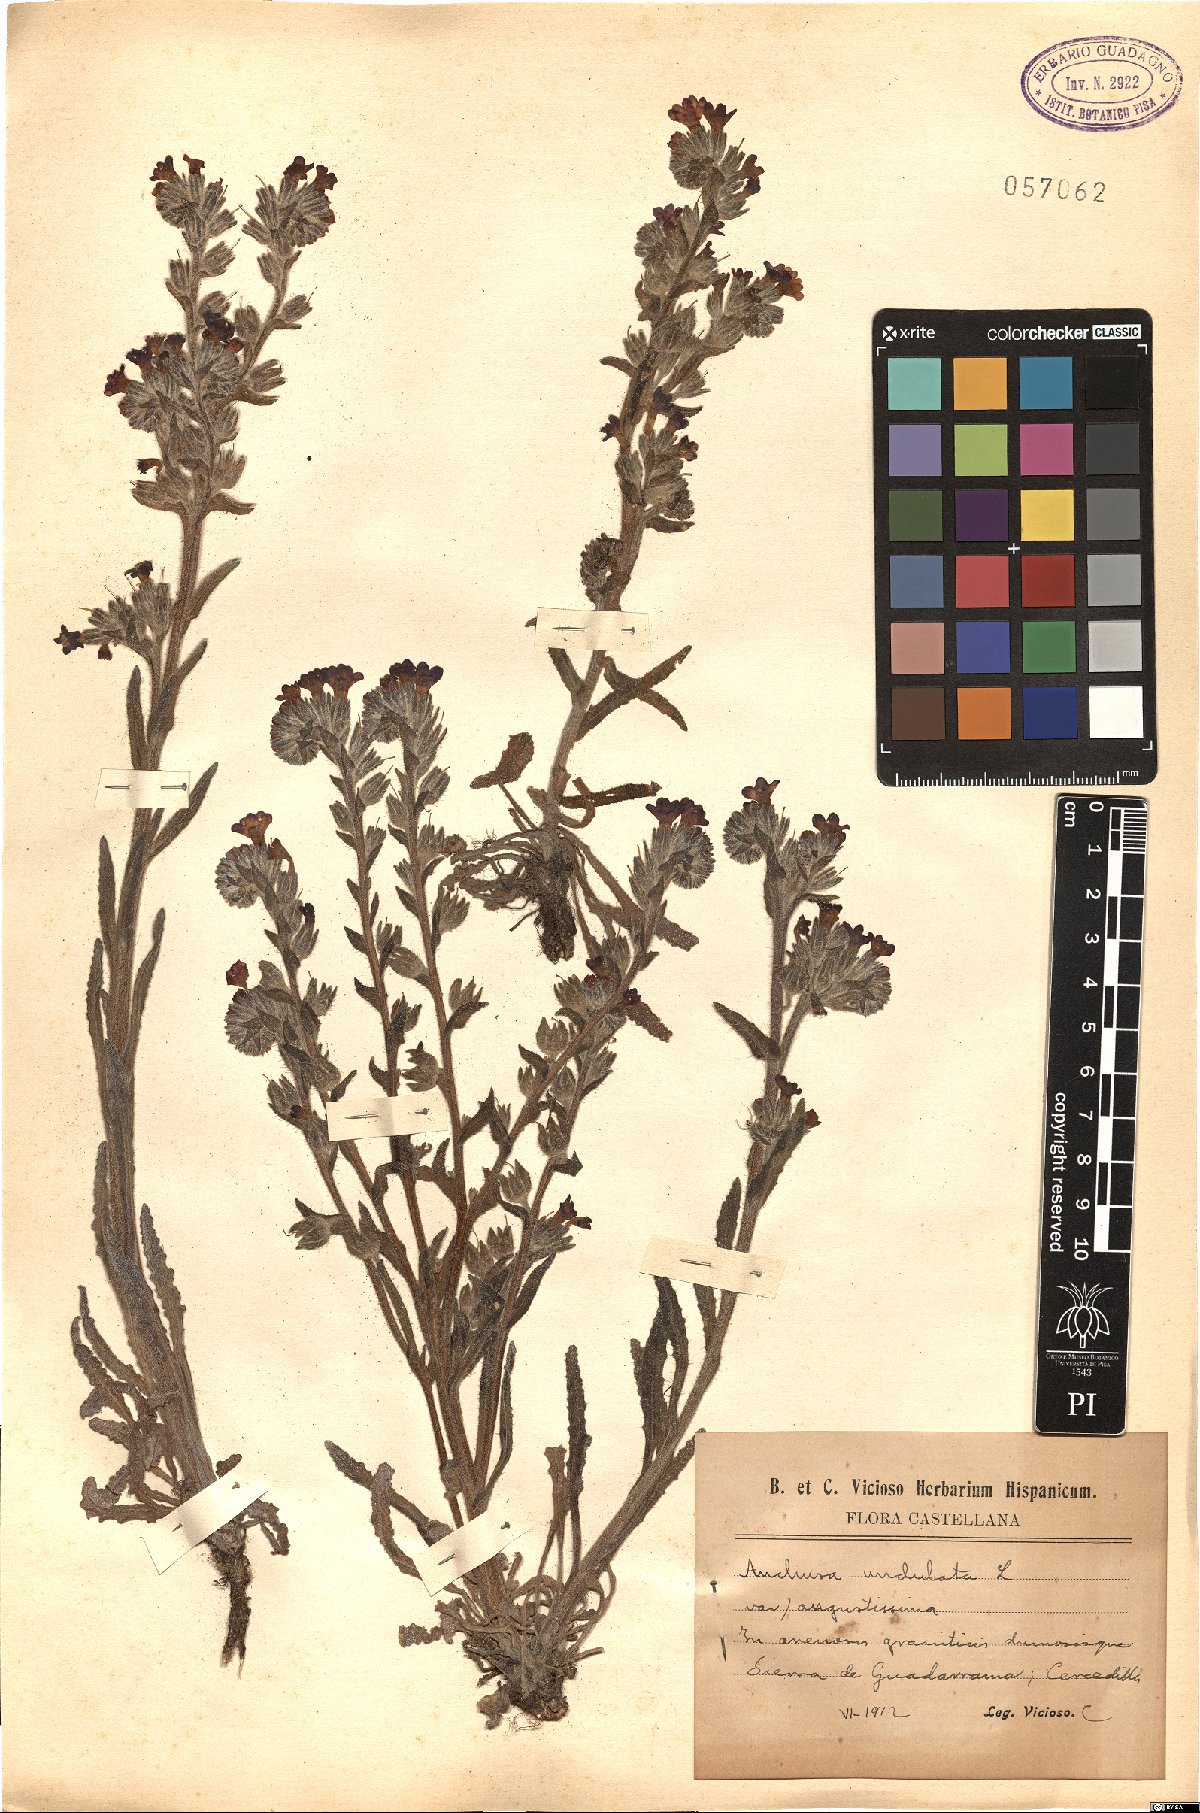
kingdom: Plantae
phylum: Tracheophyta
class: Magnoliopsida
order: Boraginales
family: Boraginaceae
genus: Anchusa
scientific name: Anchusa undulata
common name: Undulate alkanet
